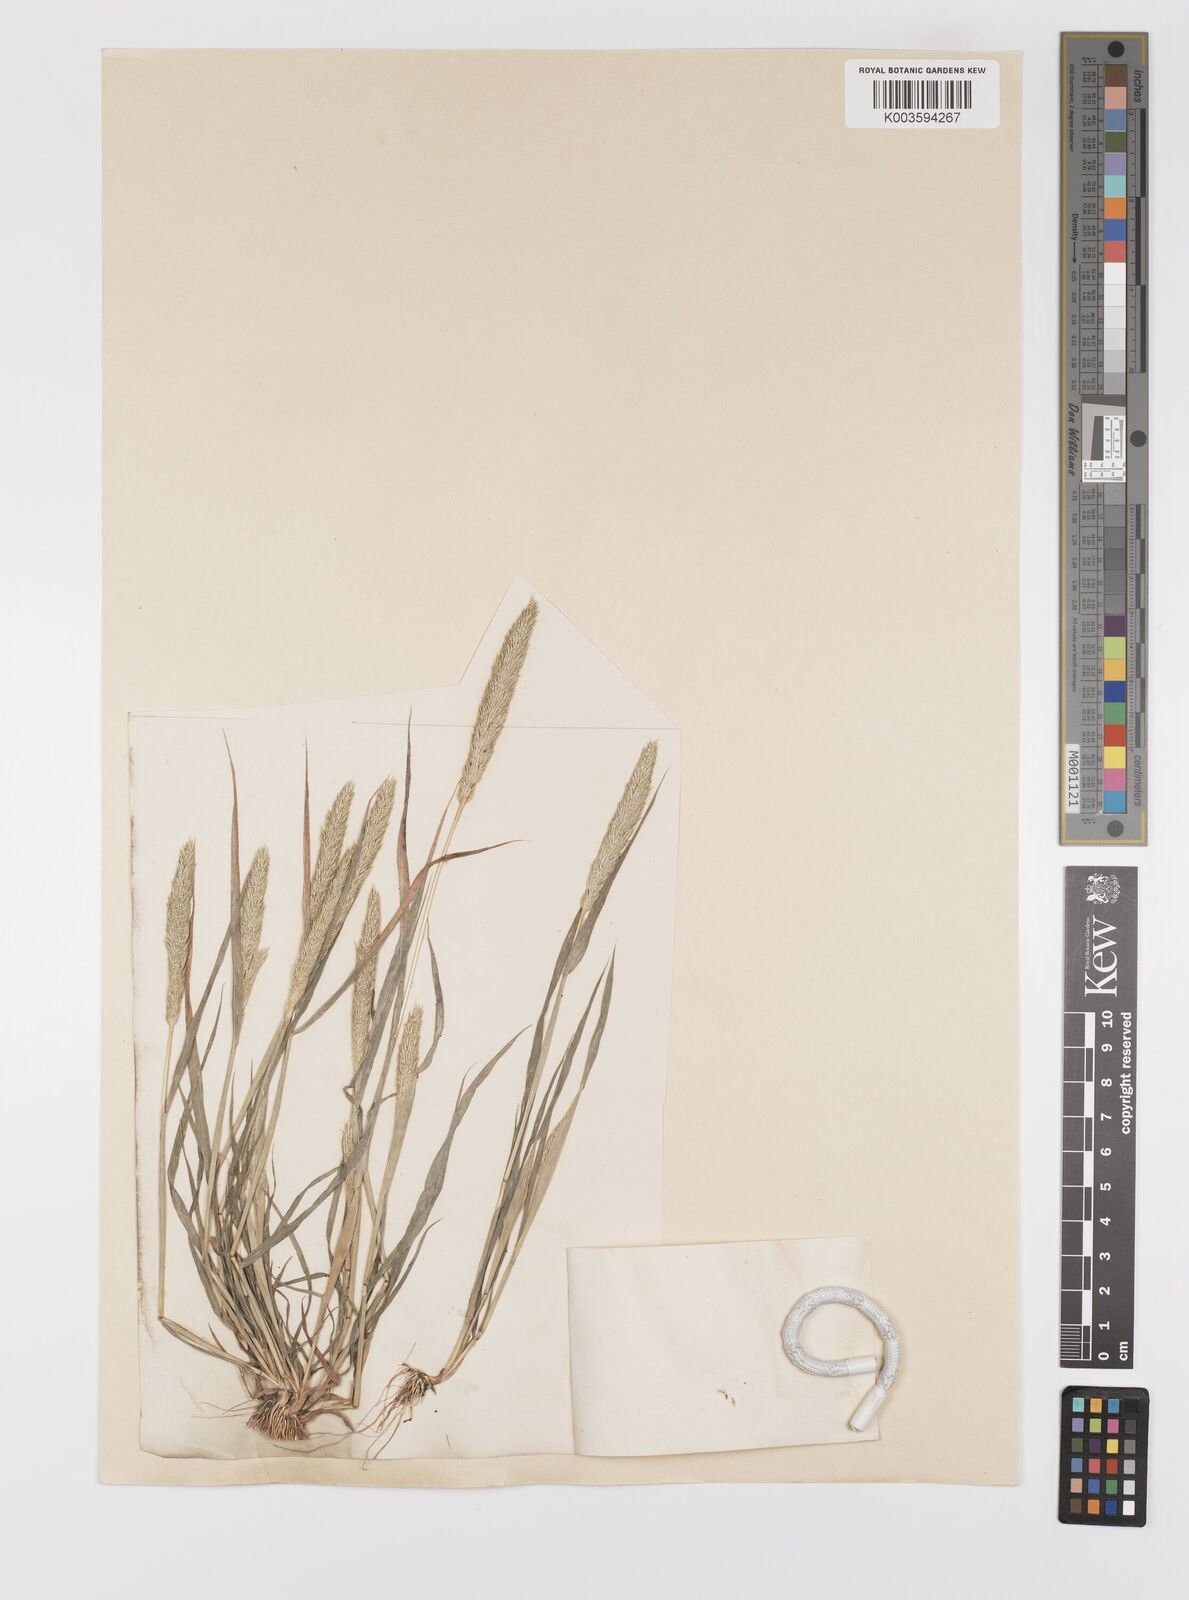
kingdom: Plantae
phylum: Tracheophyta
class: Liliopsida
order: Poales
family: Poaceae
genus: Gastridium
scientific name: Gastridium ventricosum
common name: Nit-grass
